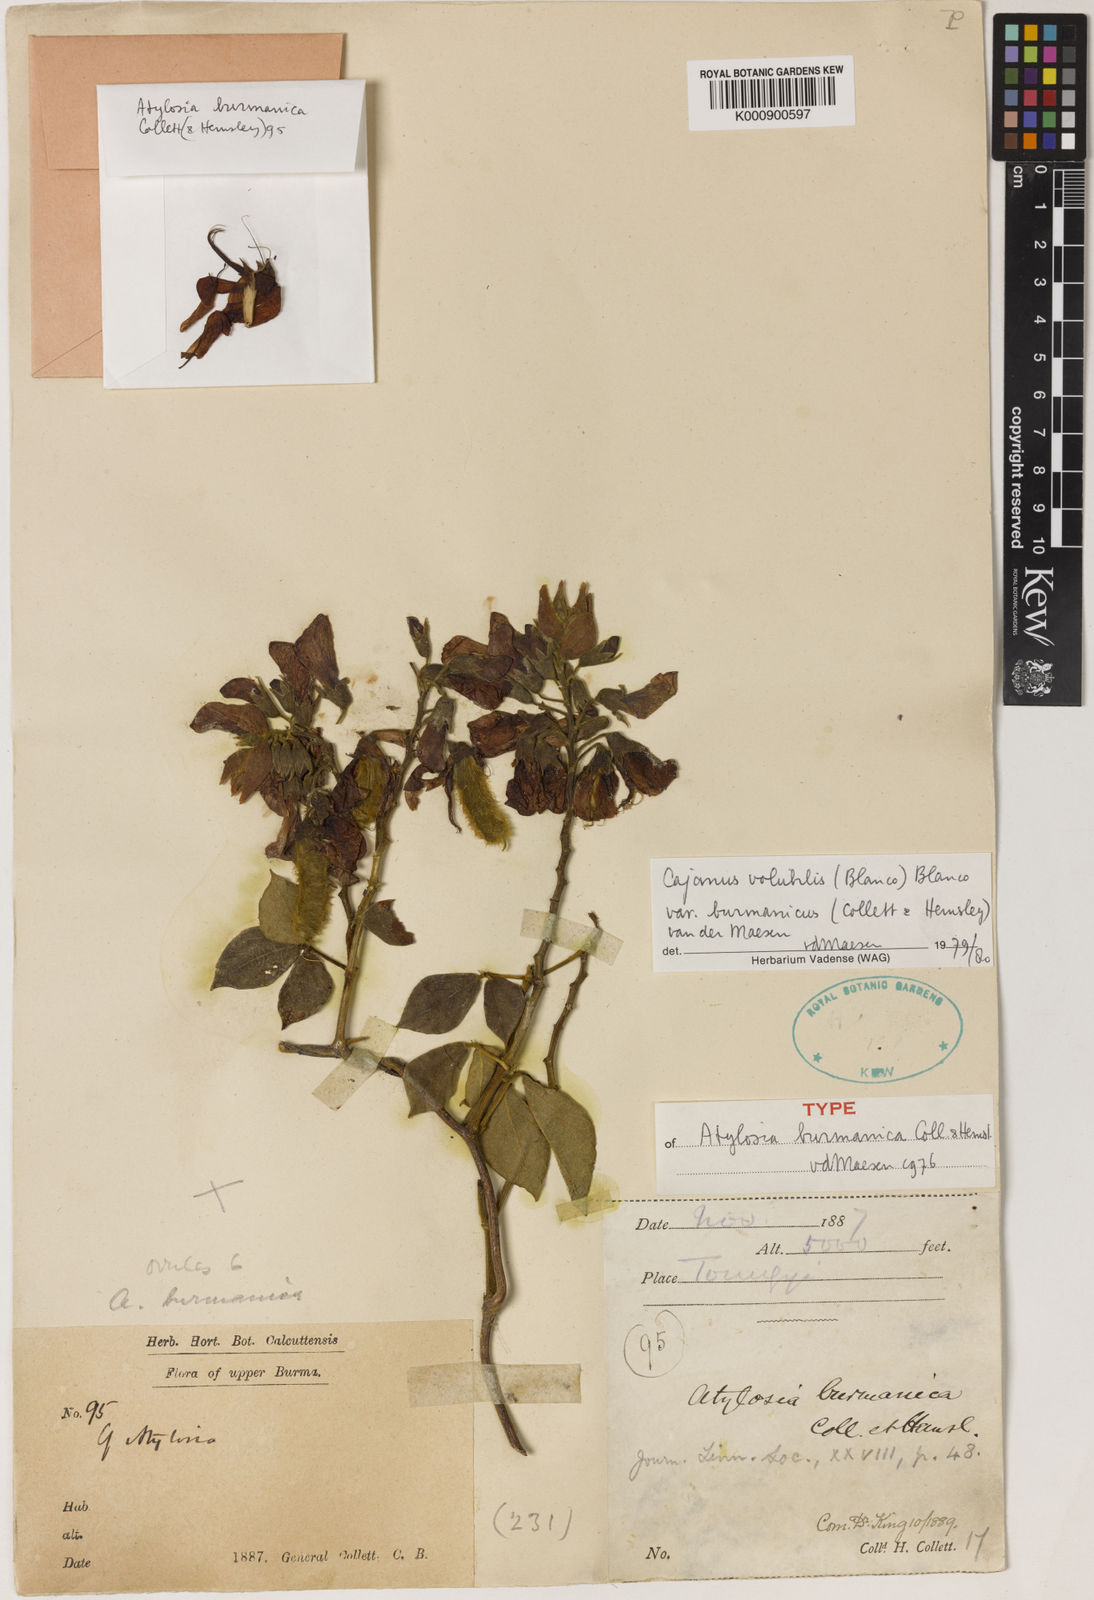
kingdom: Plantae
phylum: Tracheophyta
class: Magnoliopsida
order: Fabales
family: Fabaceae
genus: Cajanus
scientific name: Cajanus volubilis
